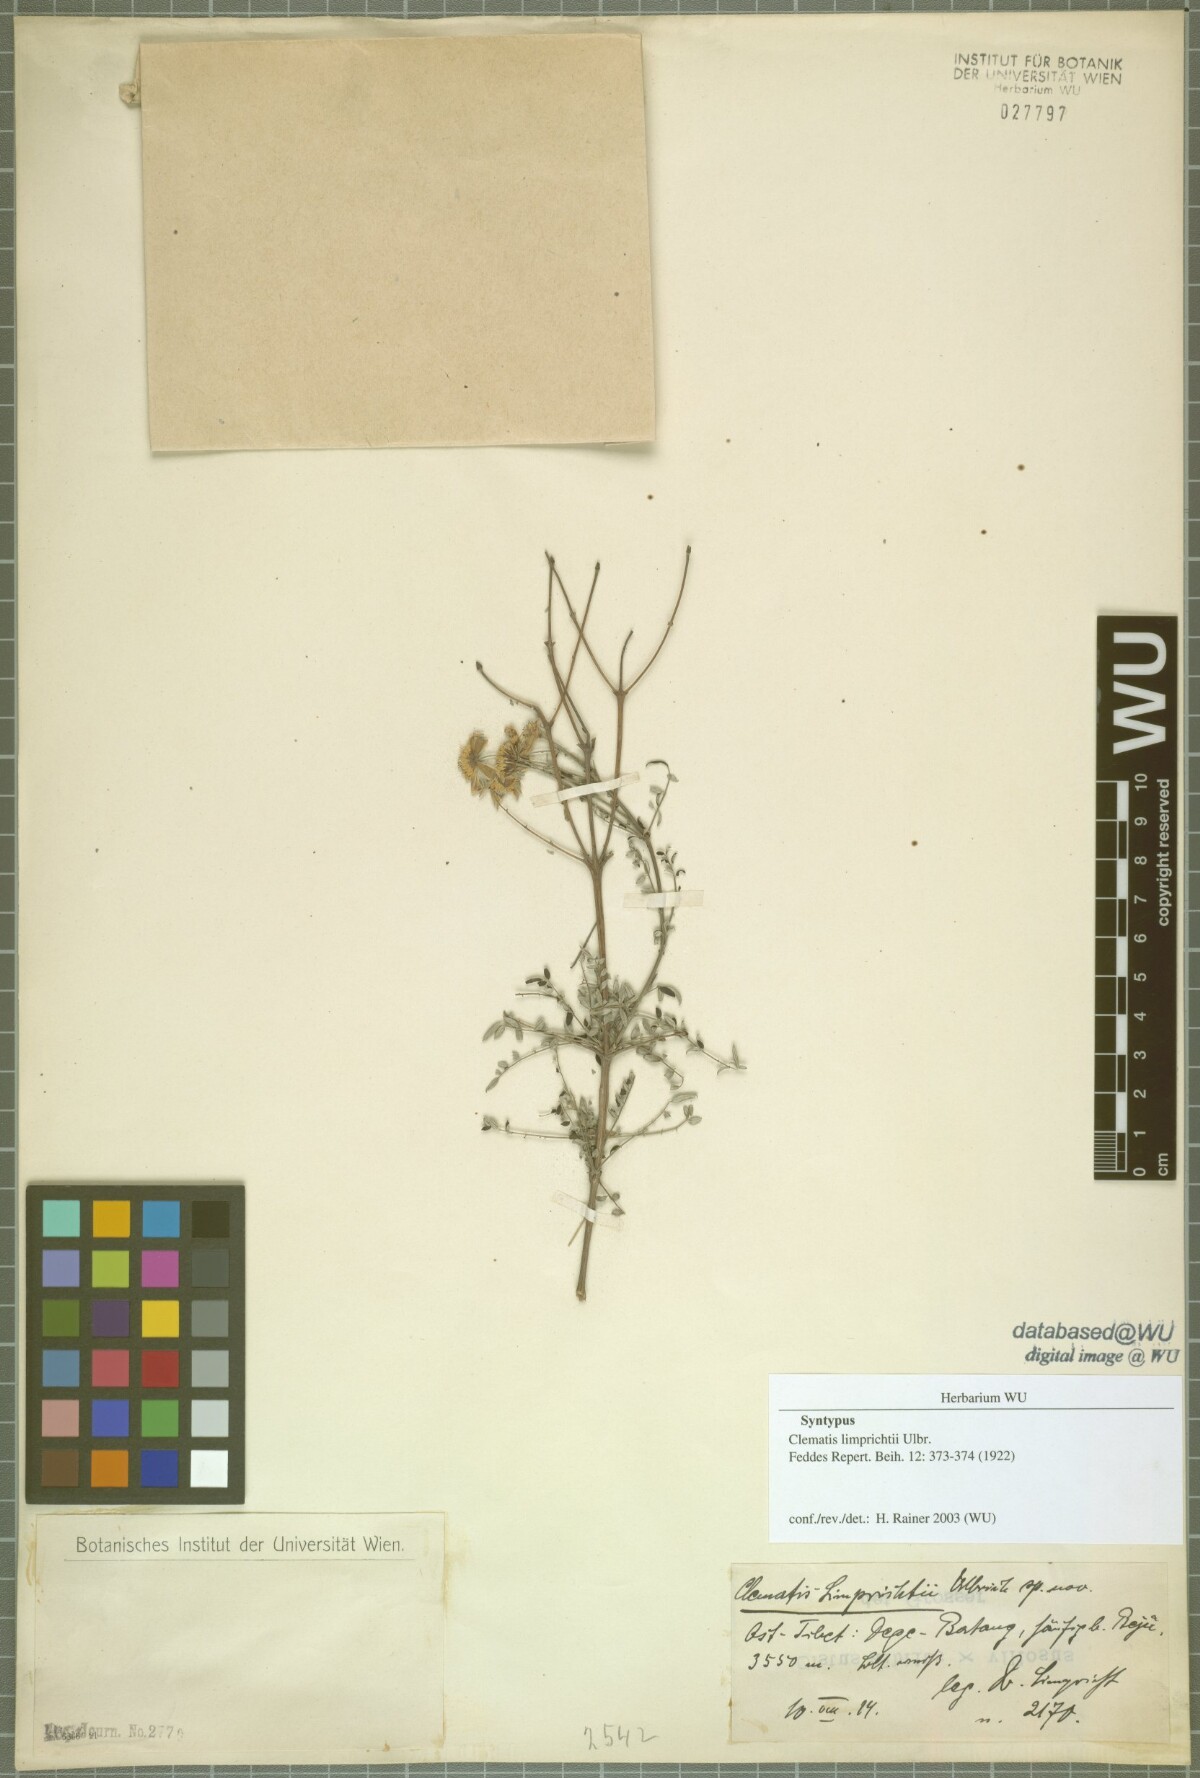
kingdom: Plantae
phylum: Tracheophyta
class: Magnoliopsida
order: Ranunculales
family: Ranunculaceae
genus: Clematis
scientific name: Clematis delavayi
